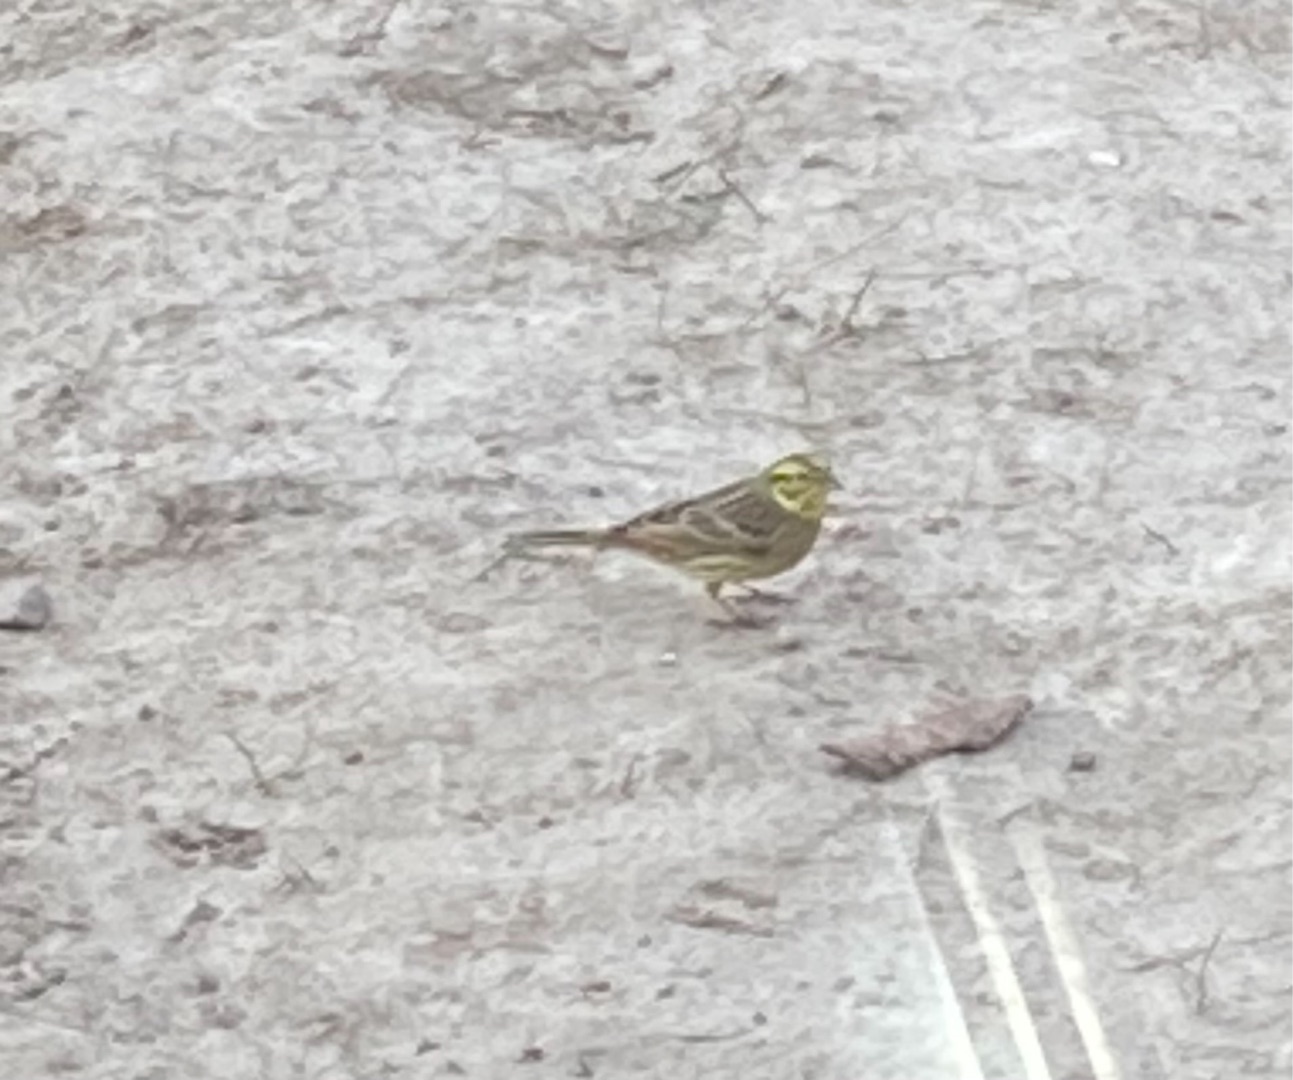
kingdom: Animalia
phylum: Chordata
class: Aves
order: Passeriformes
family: Emberizidae
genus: Emberiza
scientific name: Emberiza citrinella
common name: Gulspurv
